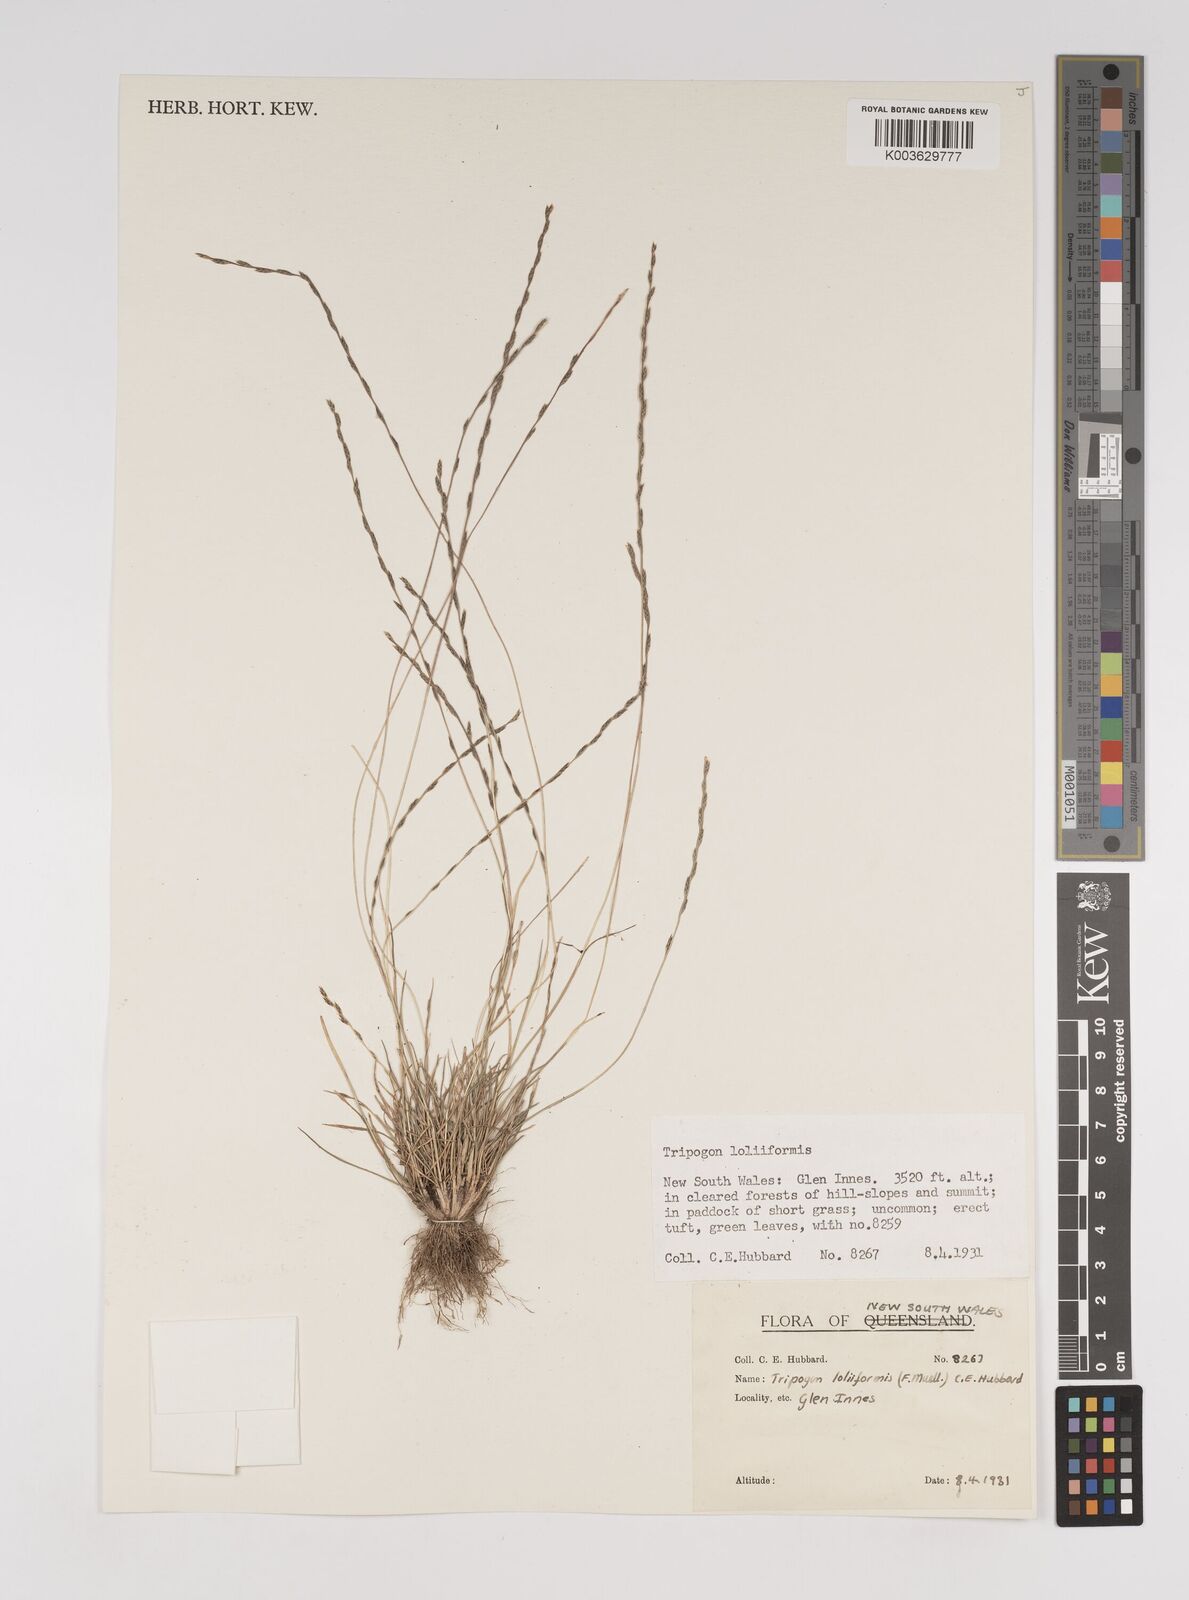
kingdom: Plantae
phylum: Tracheophyta
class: Liliopsida
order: Poales
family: Poaceae
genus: Tripogonella
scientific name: Tripogonella loliiformis
